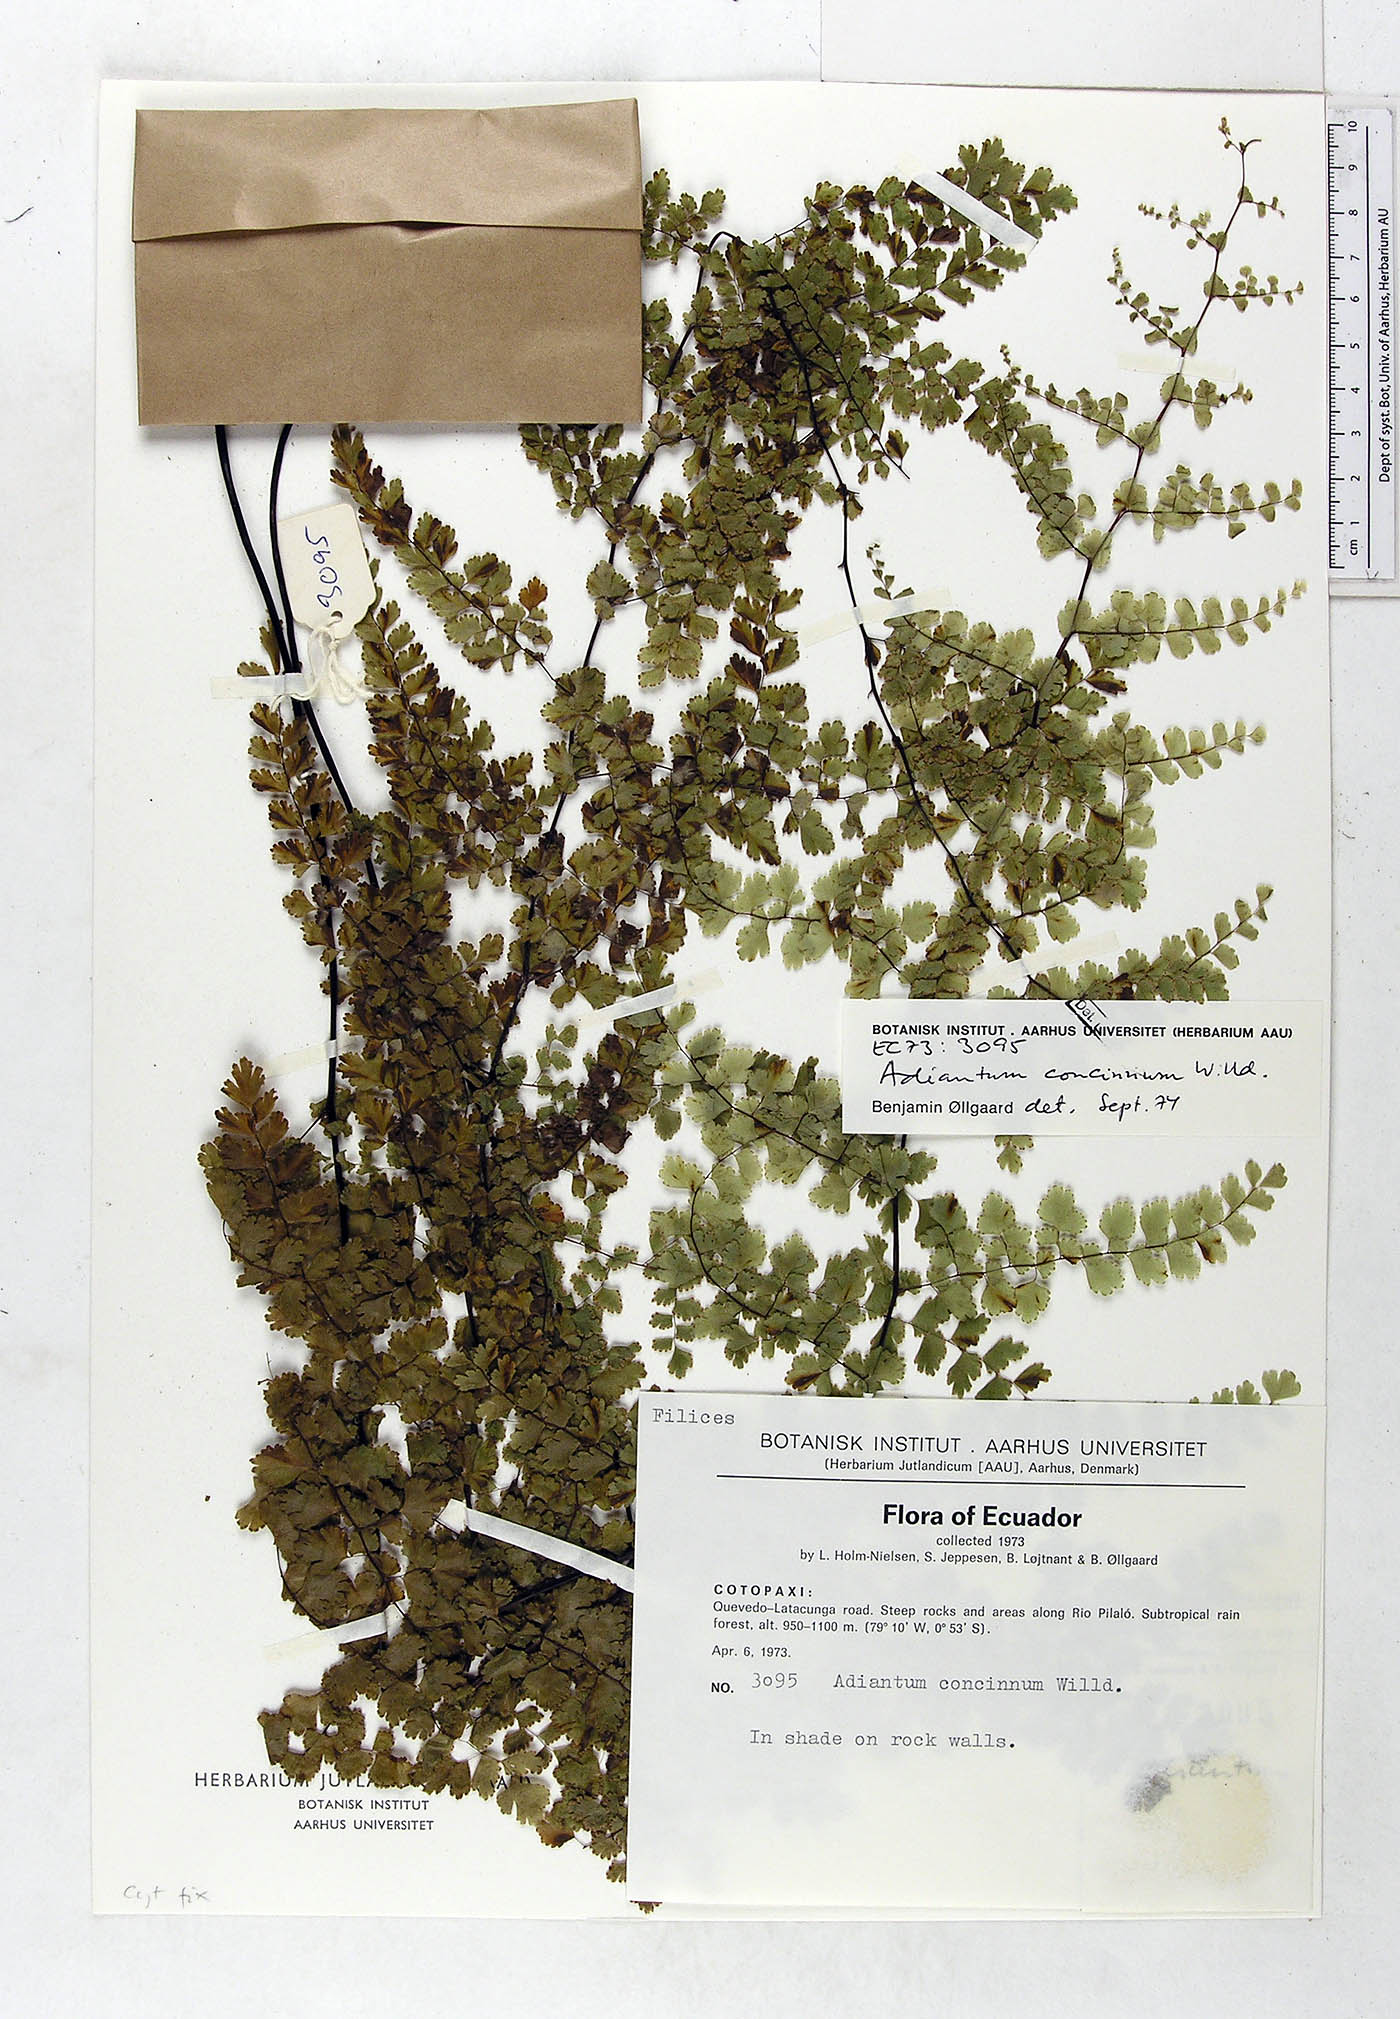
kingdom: Plantae
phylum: Tracheophyta
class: Polypodiopsida
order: Polypodiales
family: Pteridaceae
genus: Adiantum
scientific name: Adiantum concinnum
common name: Brittle maidenhair fern
